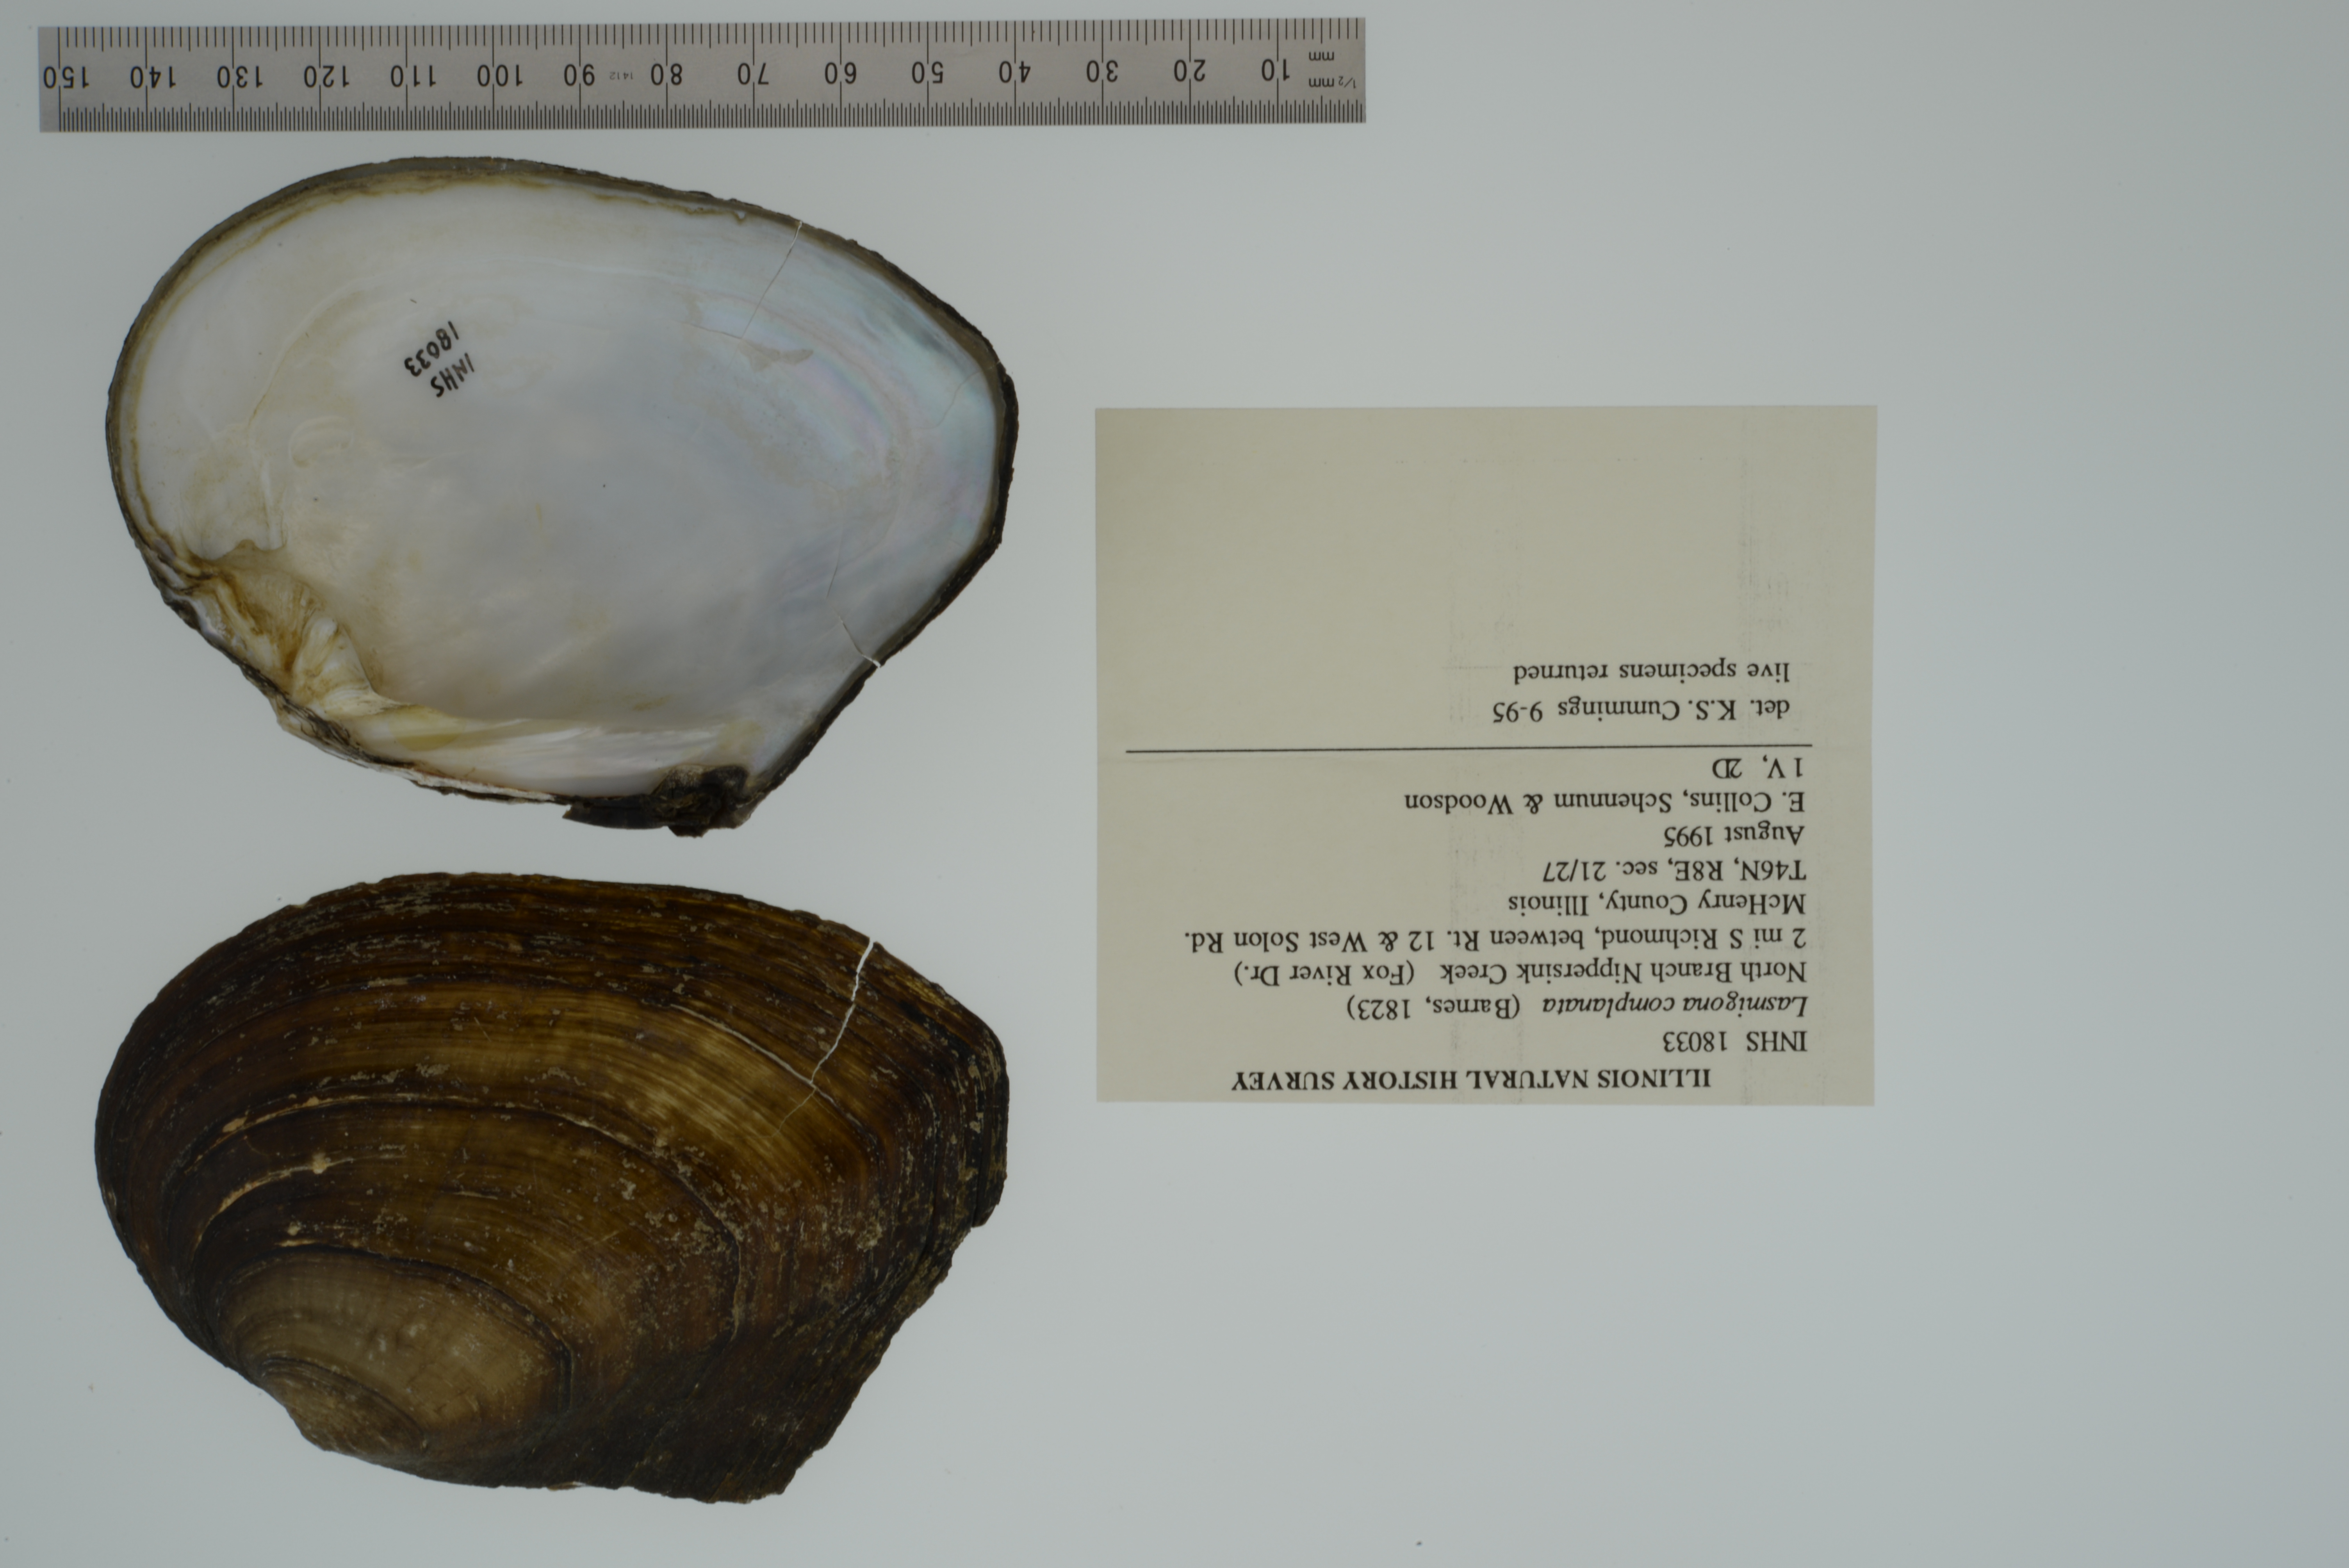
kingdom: Animalia
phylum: Mollusca
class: Bivalvia
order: Unionida
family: Unionidae
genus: Lasmigona
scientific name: Lasmigona complanata
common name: White heelsplitter
